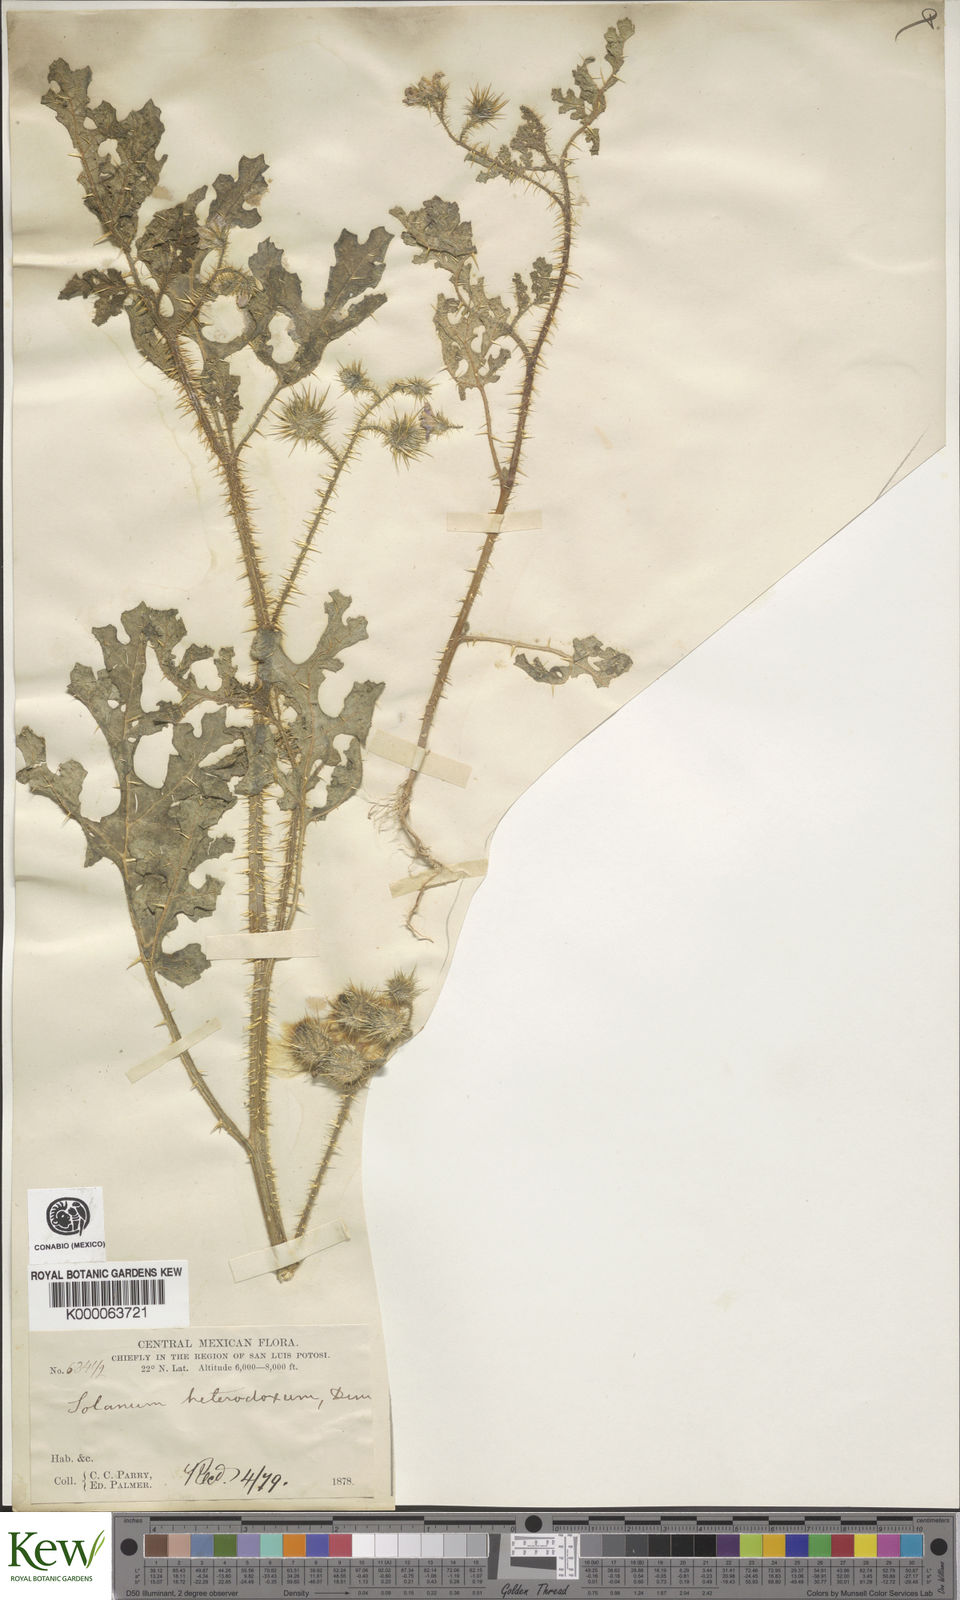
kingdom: Plantae
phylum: Tracheophyta
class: Magnoliopsida
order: Solanales
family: Solanaceae
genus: Solanum
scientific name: Solanum heterodoxum
